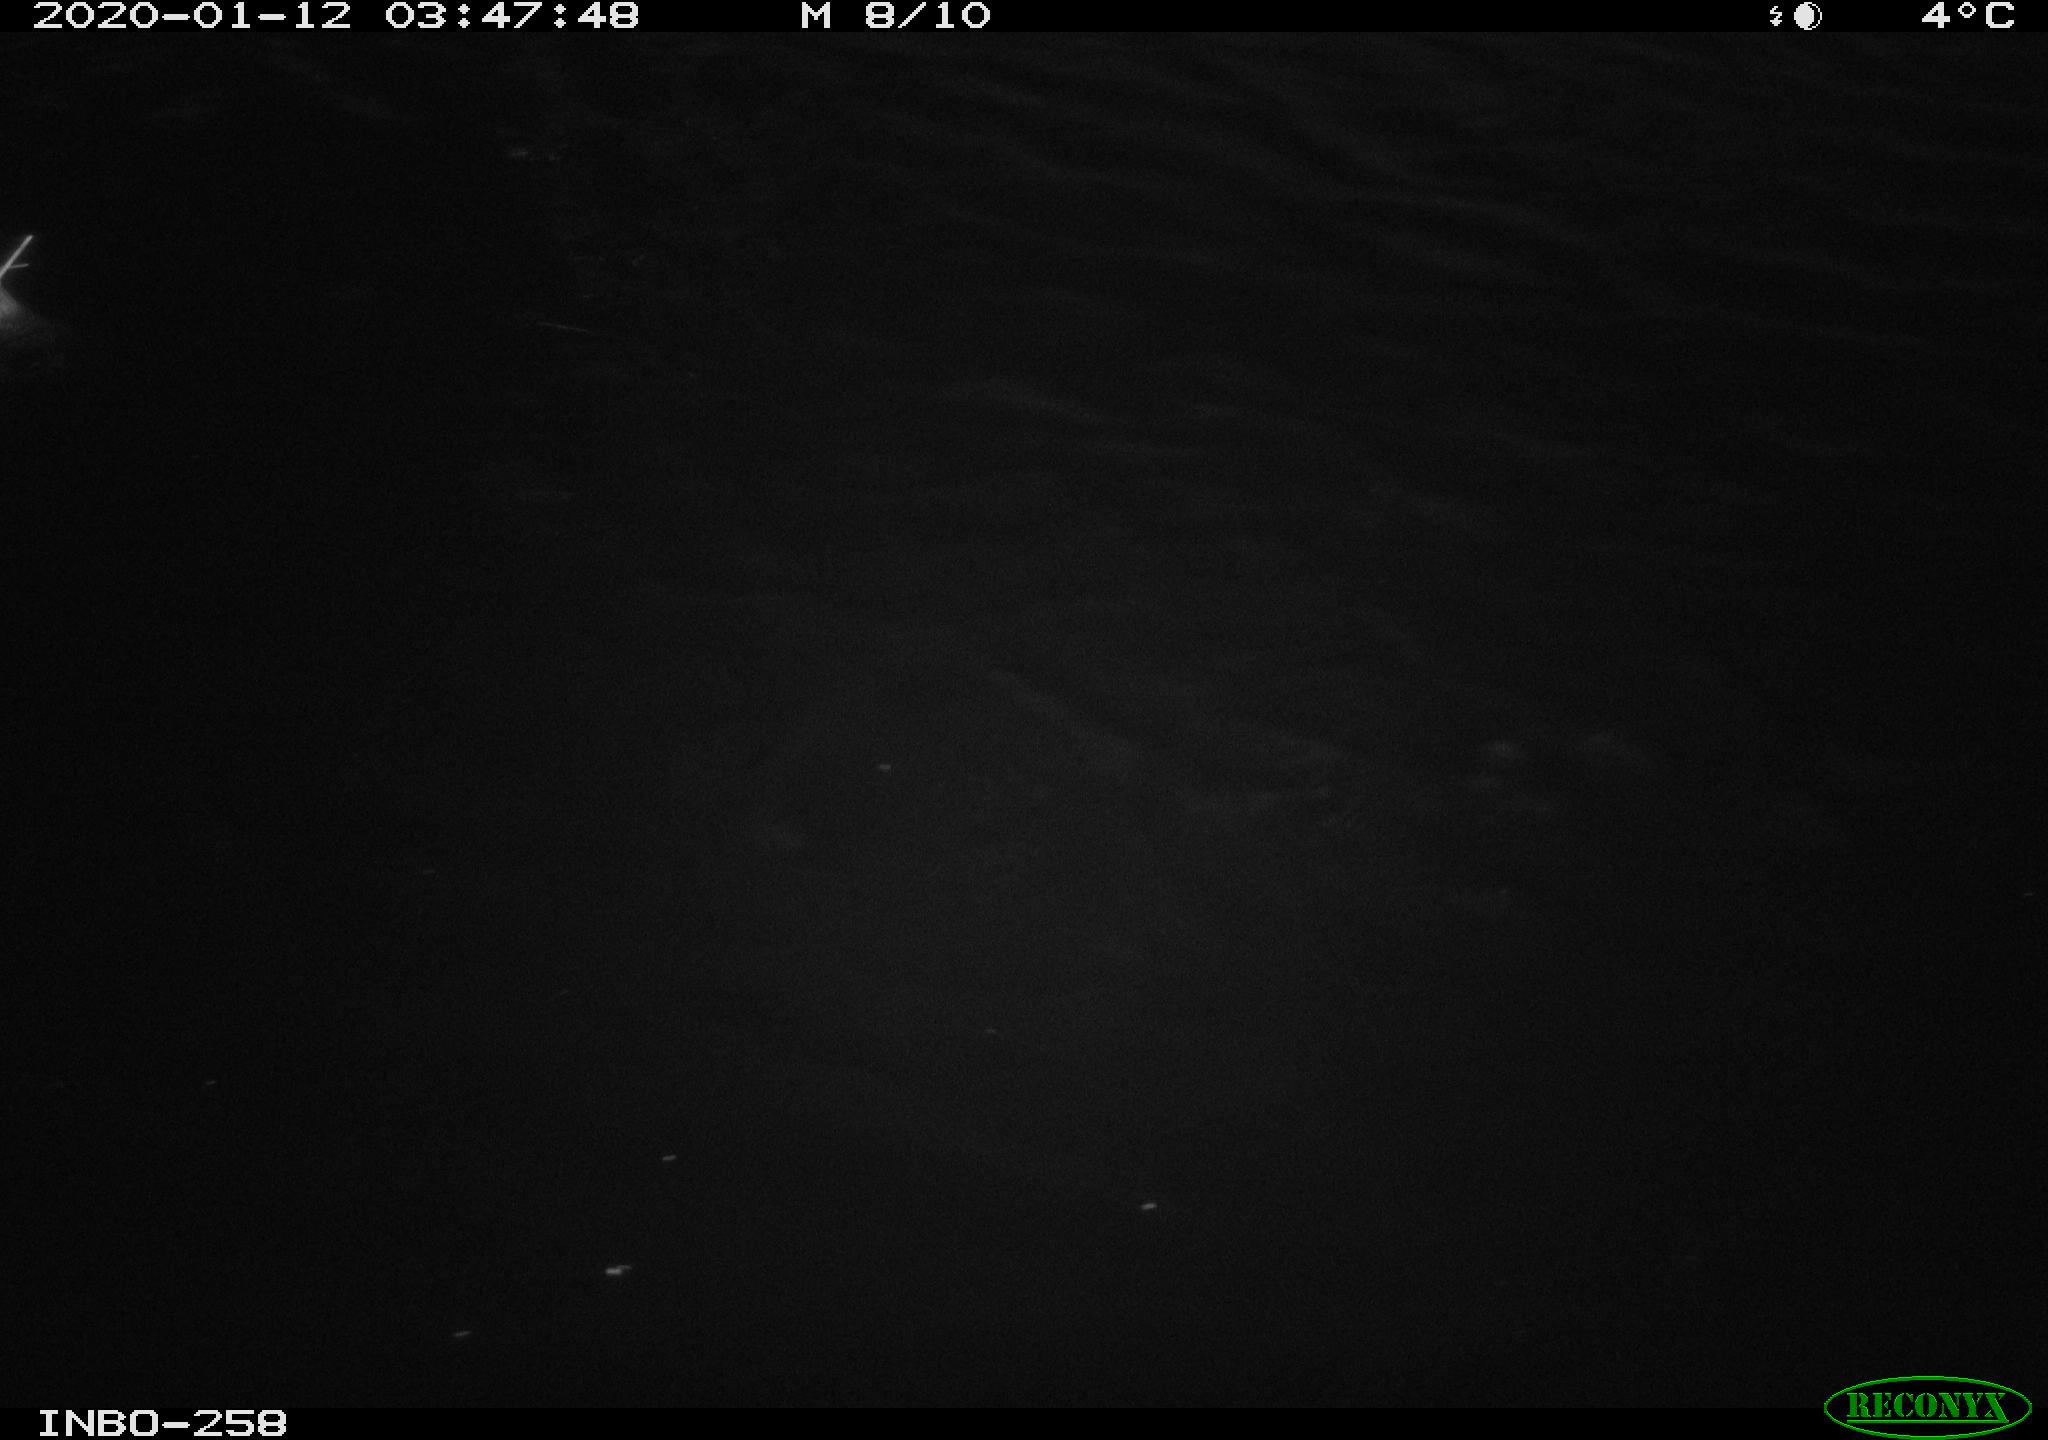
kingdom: Animalia
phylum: Chordata
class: Aves
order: Anseriformes
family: Anatidae
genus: Anas
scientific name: Anas platyrhynchos
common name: Mallard
